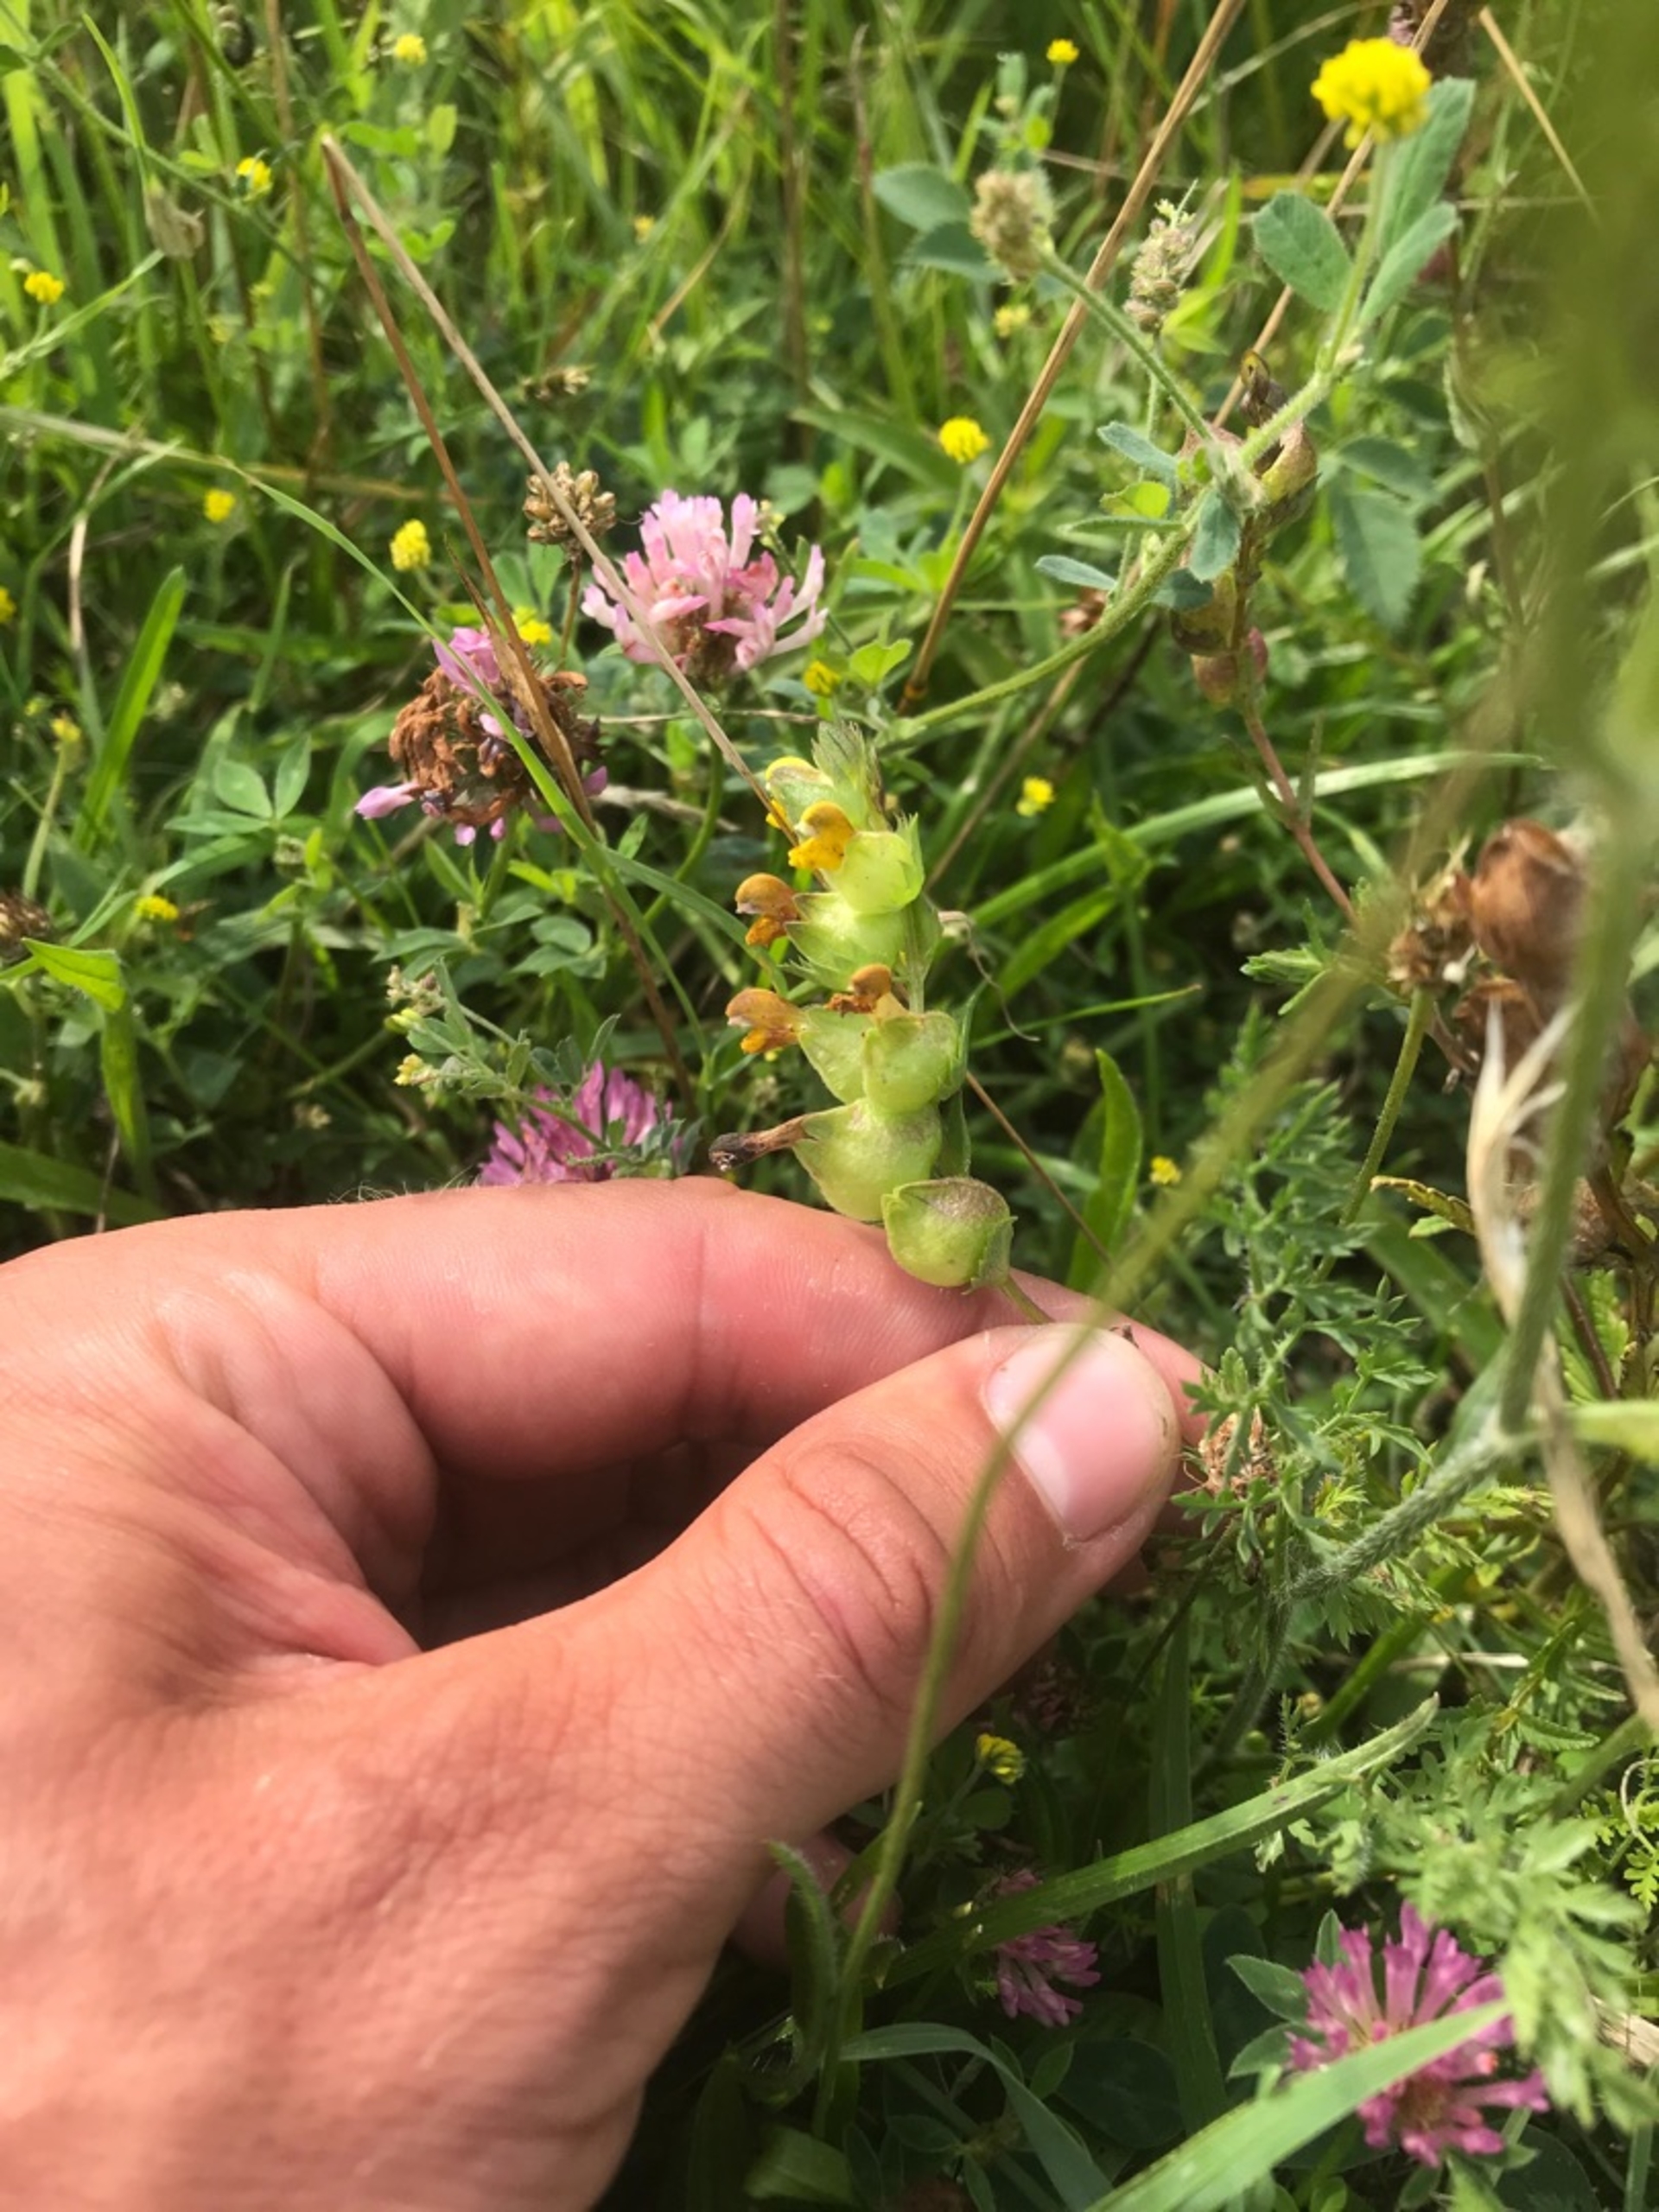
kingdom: Plantae
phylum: Tracheophyta
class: Magnoliopsida
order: Lamiales
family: Orobanchaceae
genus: Rhinanthus
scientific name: Rhinanthus minor
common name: Liden skjaller
